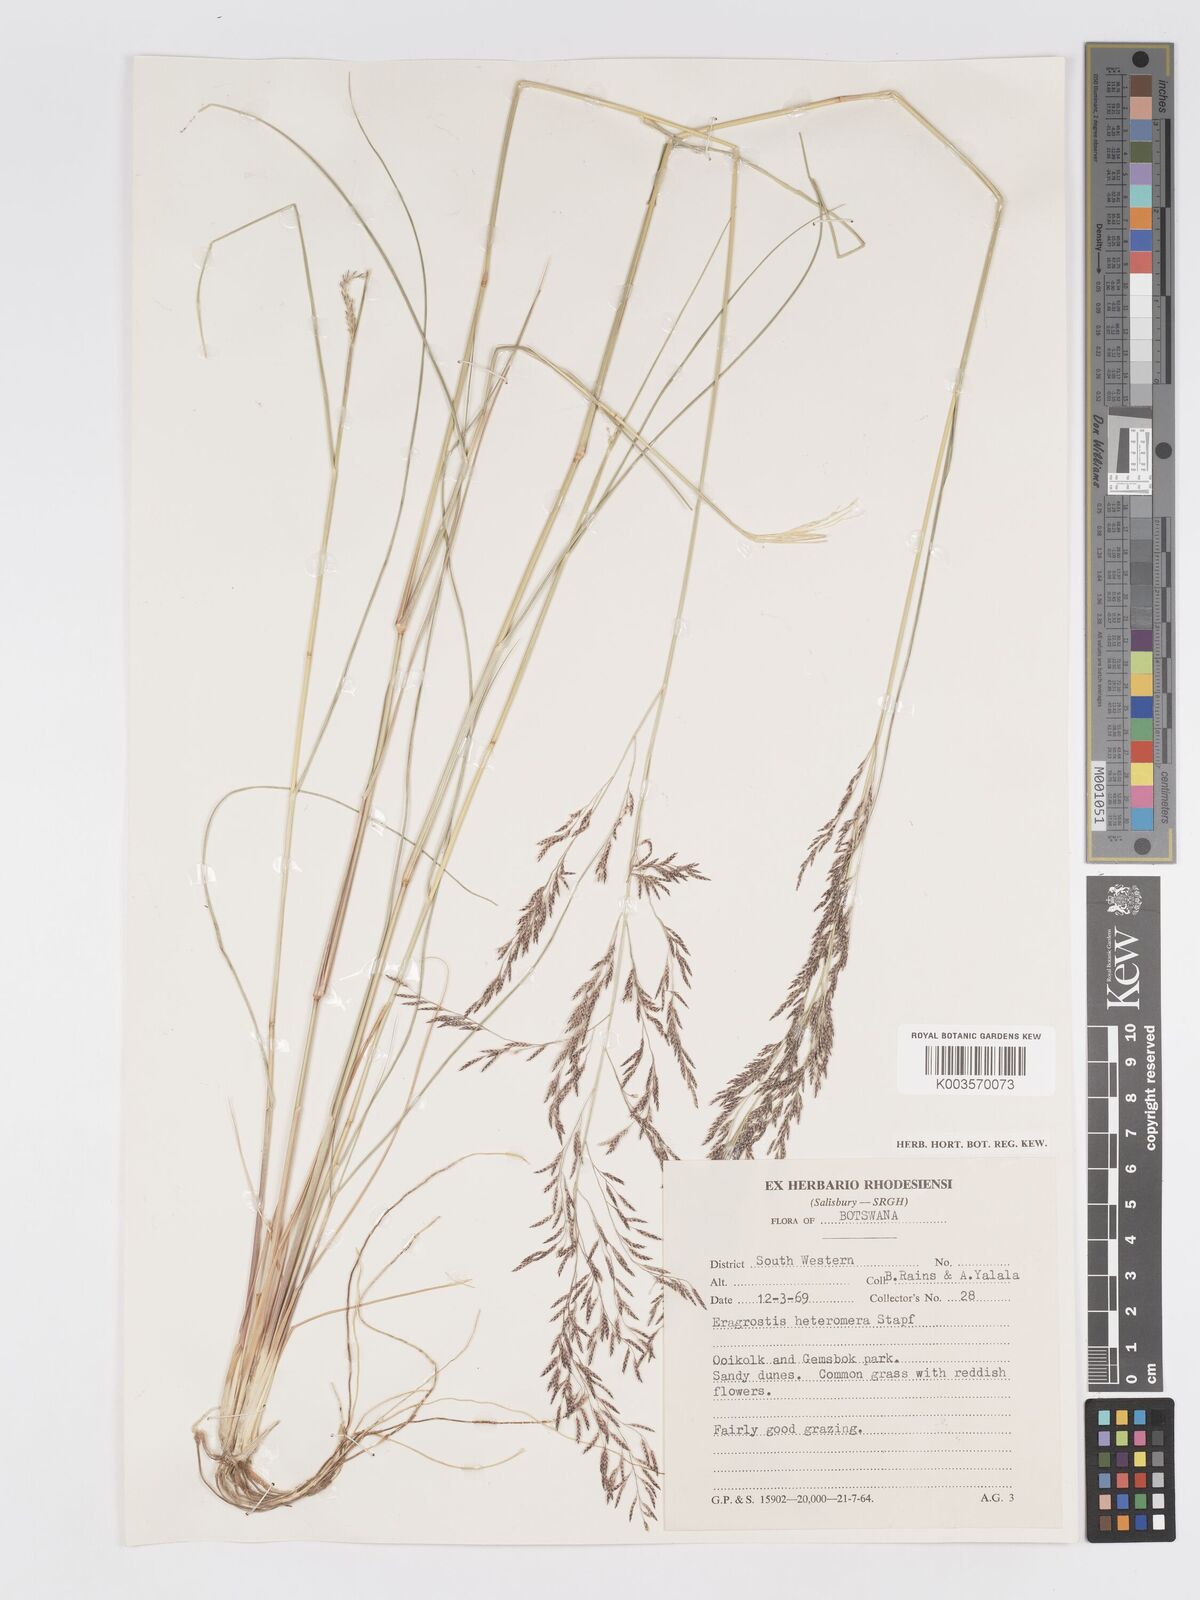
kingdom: Plantae
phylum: Tracheophyta
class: Liliopsida
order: Poales
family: Poaceae
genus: Eragrostis
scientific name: Eragrostis rotifer
